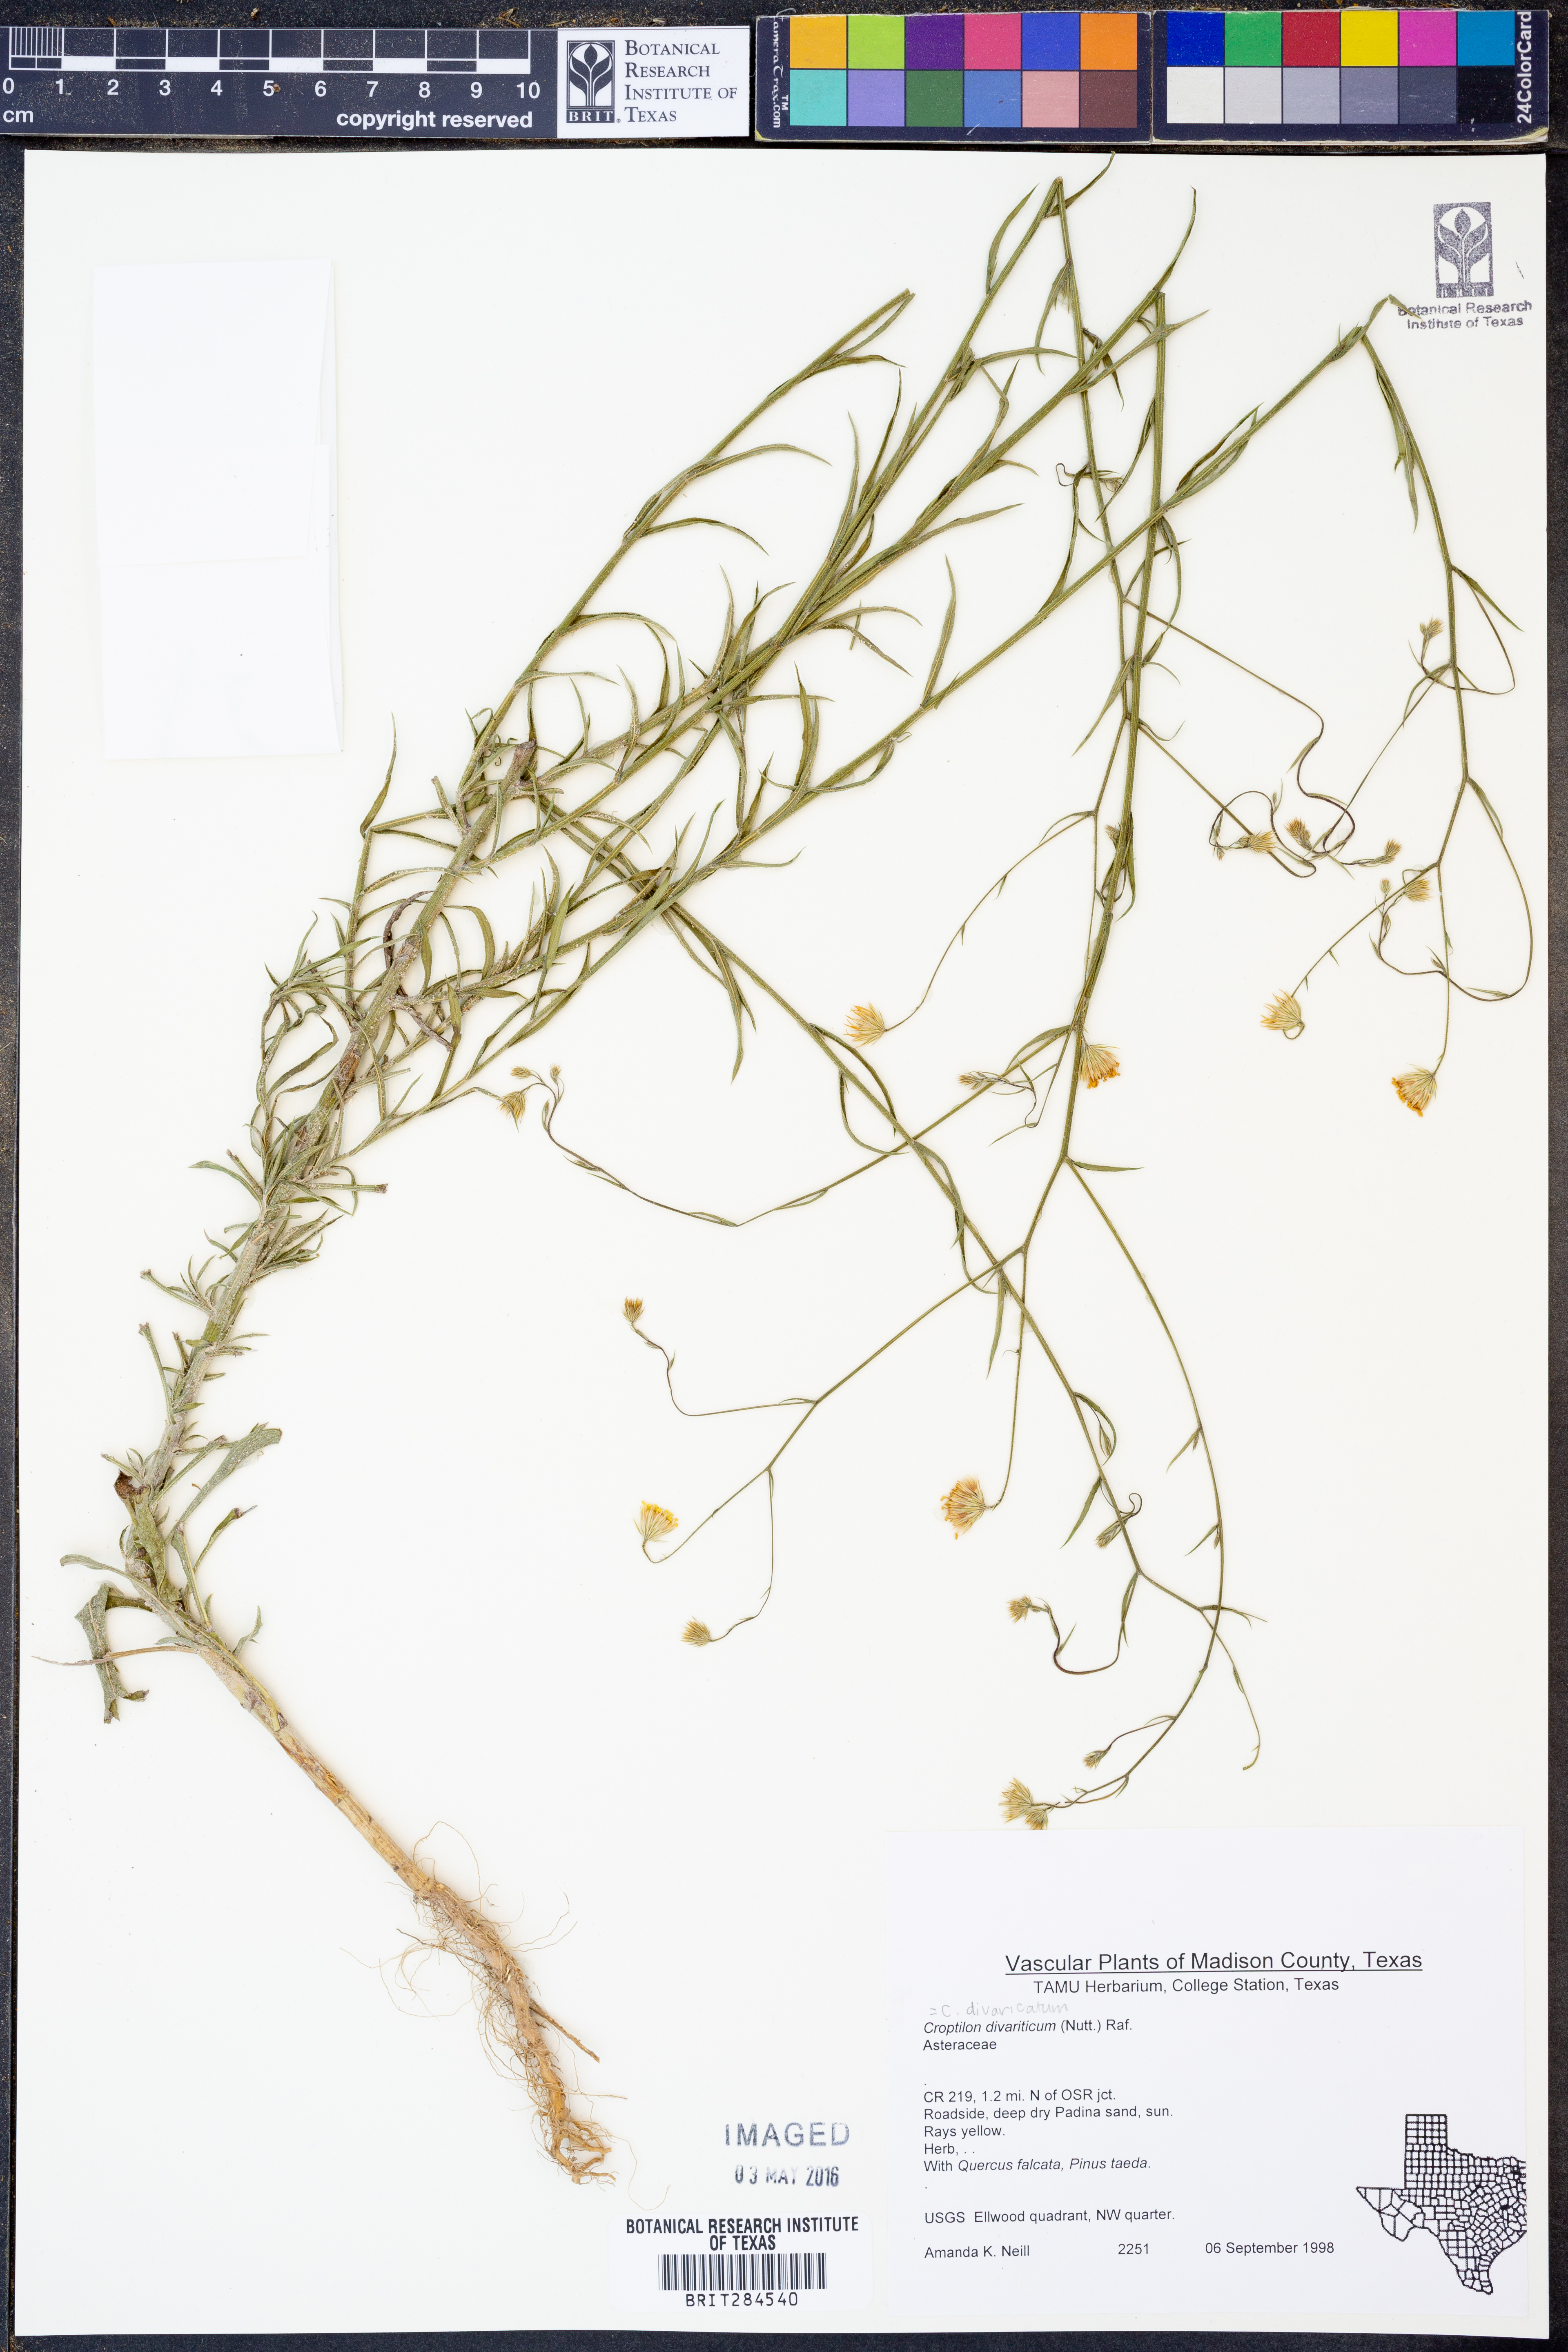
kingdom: Plantae
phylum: Tracheophyta
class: Magnoliopsida
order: Asterales
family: Asteraceae
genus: Croptilon
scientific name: Croptilon divaricatum
